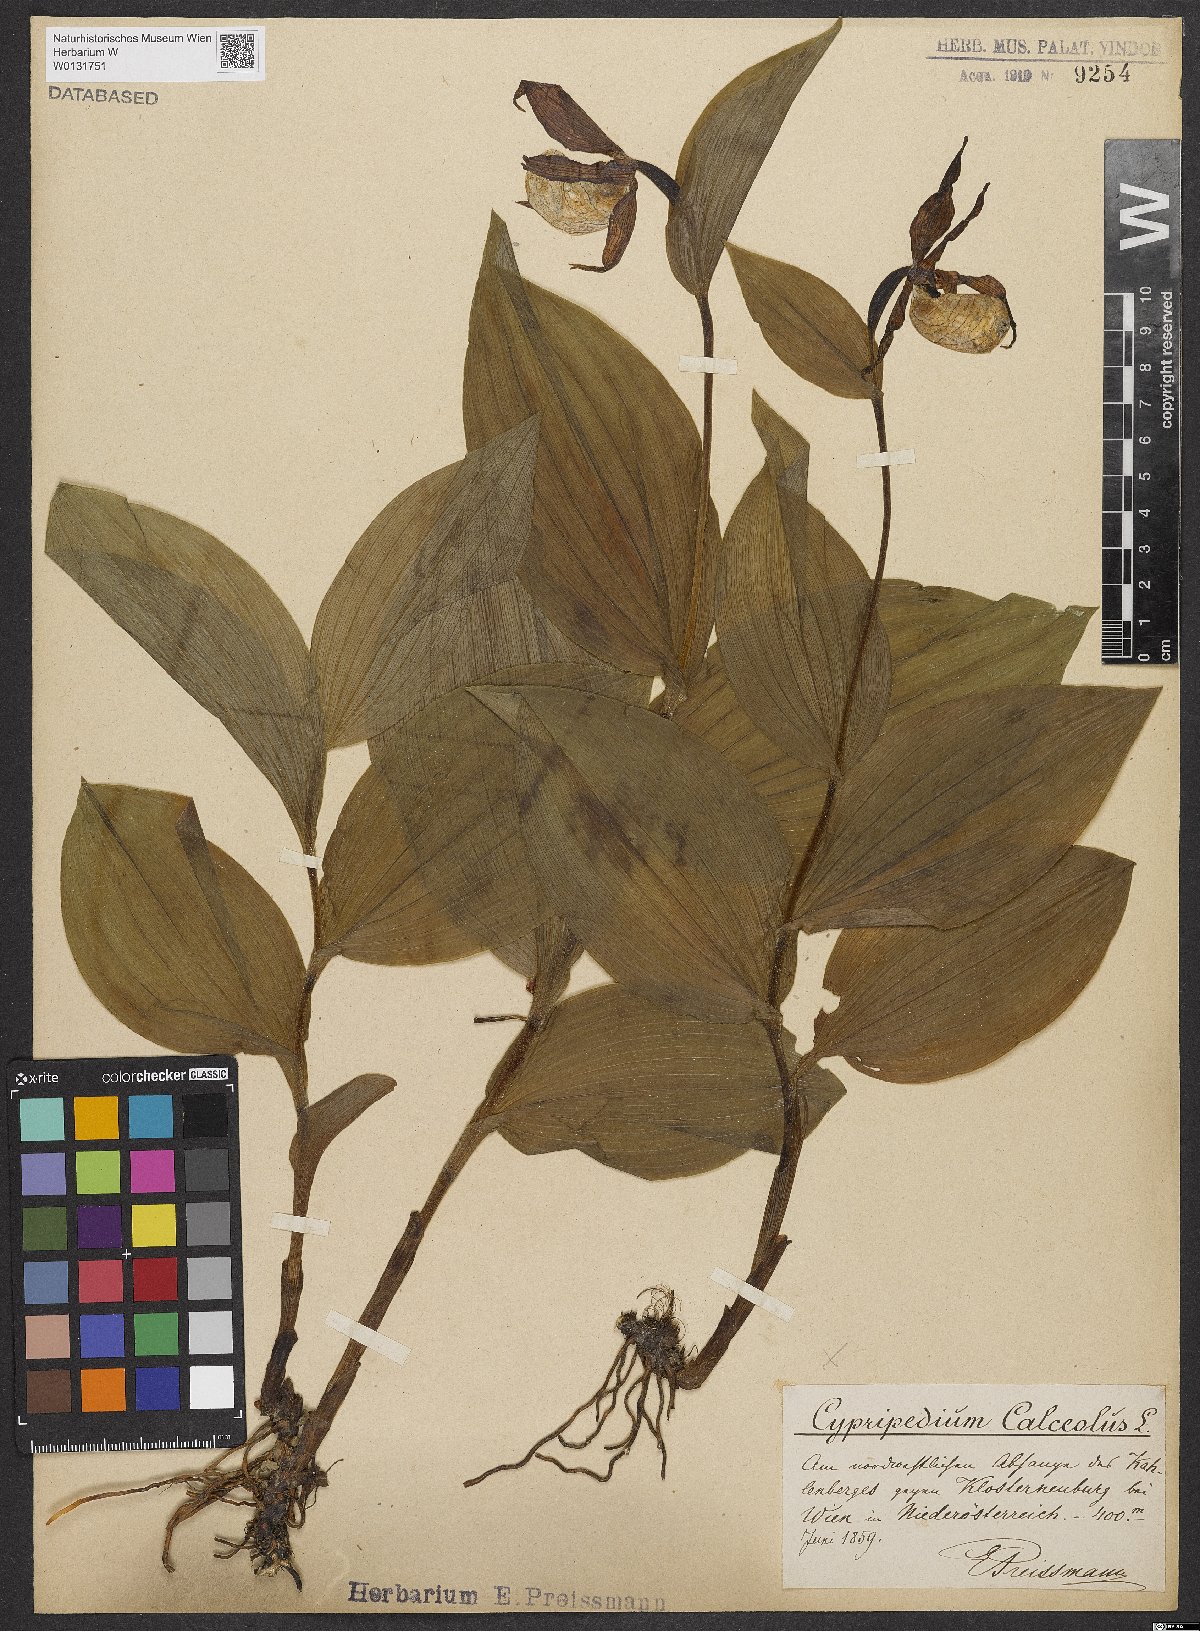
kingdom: Plantae
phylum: Tracheophyta
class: Liliopsida
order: Asparagales
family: Orchidaceae
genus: Cypripedium
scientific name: Cypripedium calceolus
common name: Lady's-slipper
